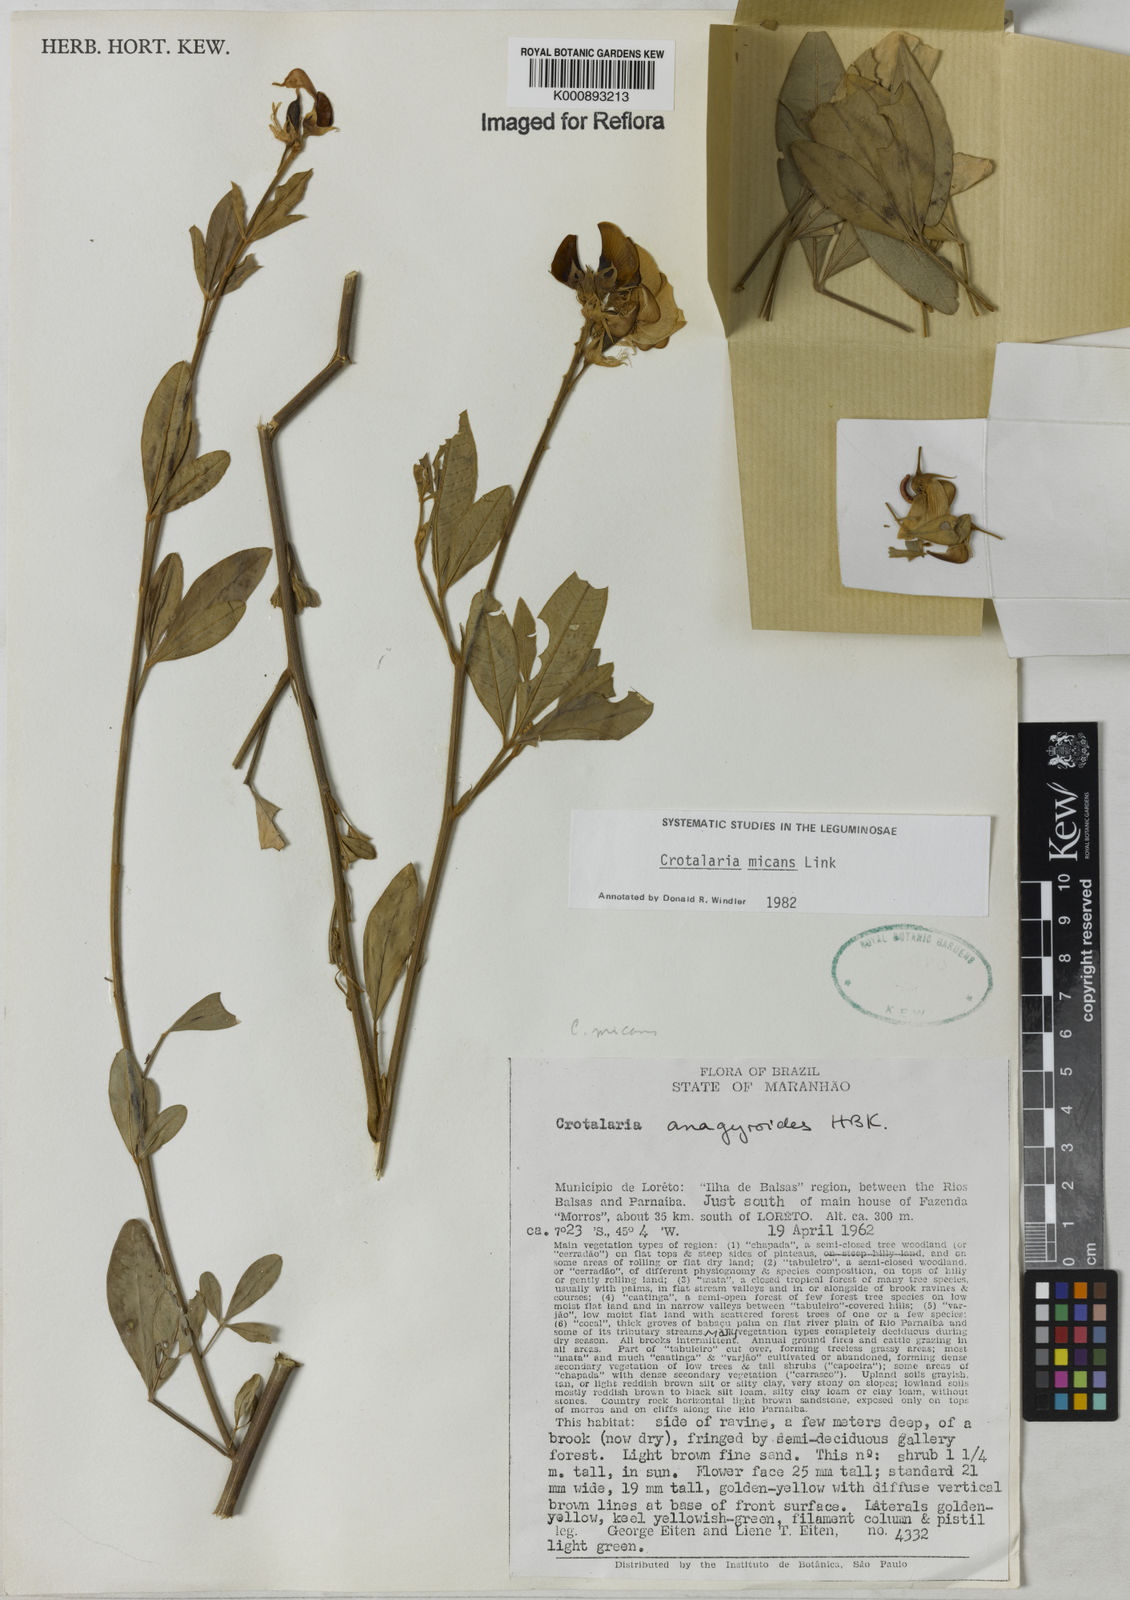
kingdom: Plantae
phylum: Tracheophyta
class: Magnoliopsida
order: Fabales
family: Fabaceae
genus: Crotalaria
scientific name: Crotalaria micans
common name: Caracas rattlebox
